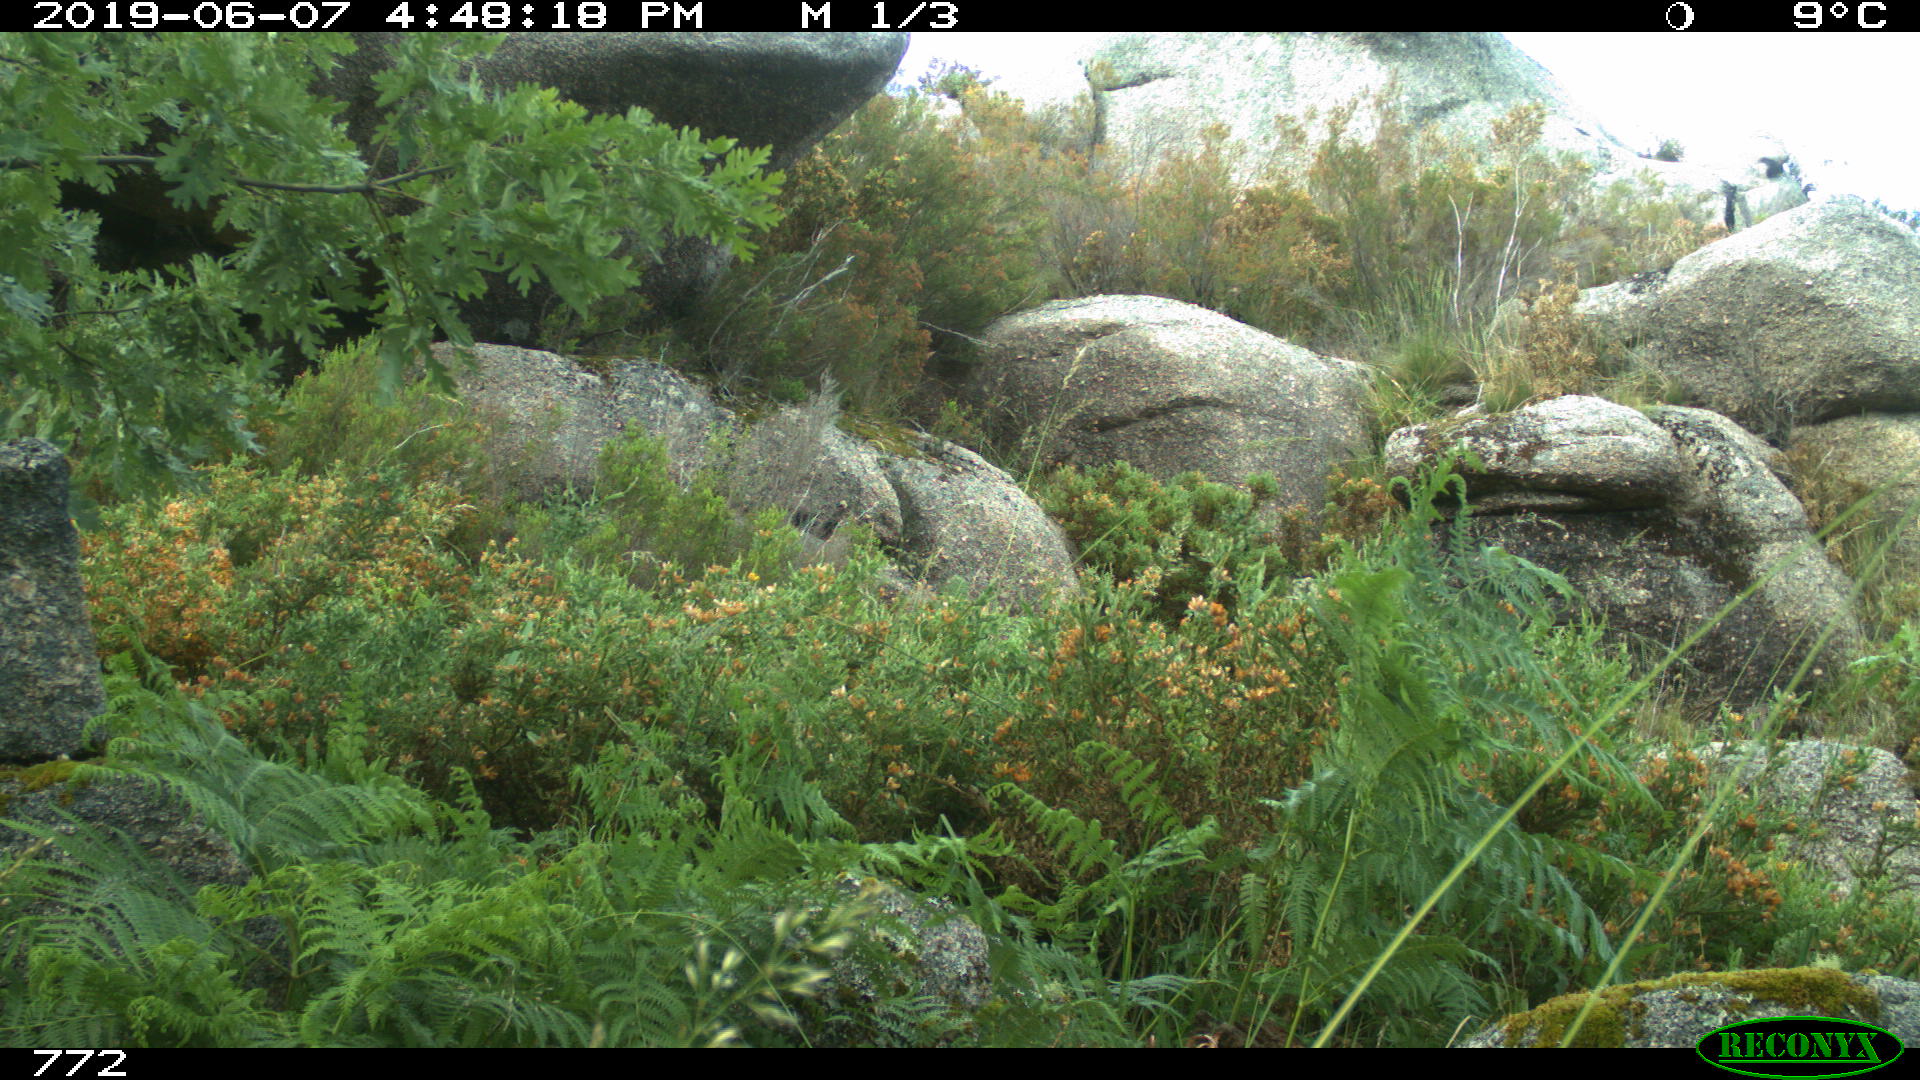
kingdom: Animalia
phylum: Chordata
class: Mammalia
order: Artiodactyla
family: Suidae
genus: Sus
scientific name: Sus scrofa
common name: Wild boar
